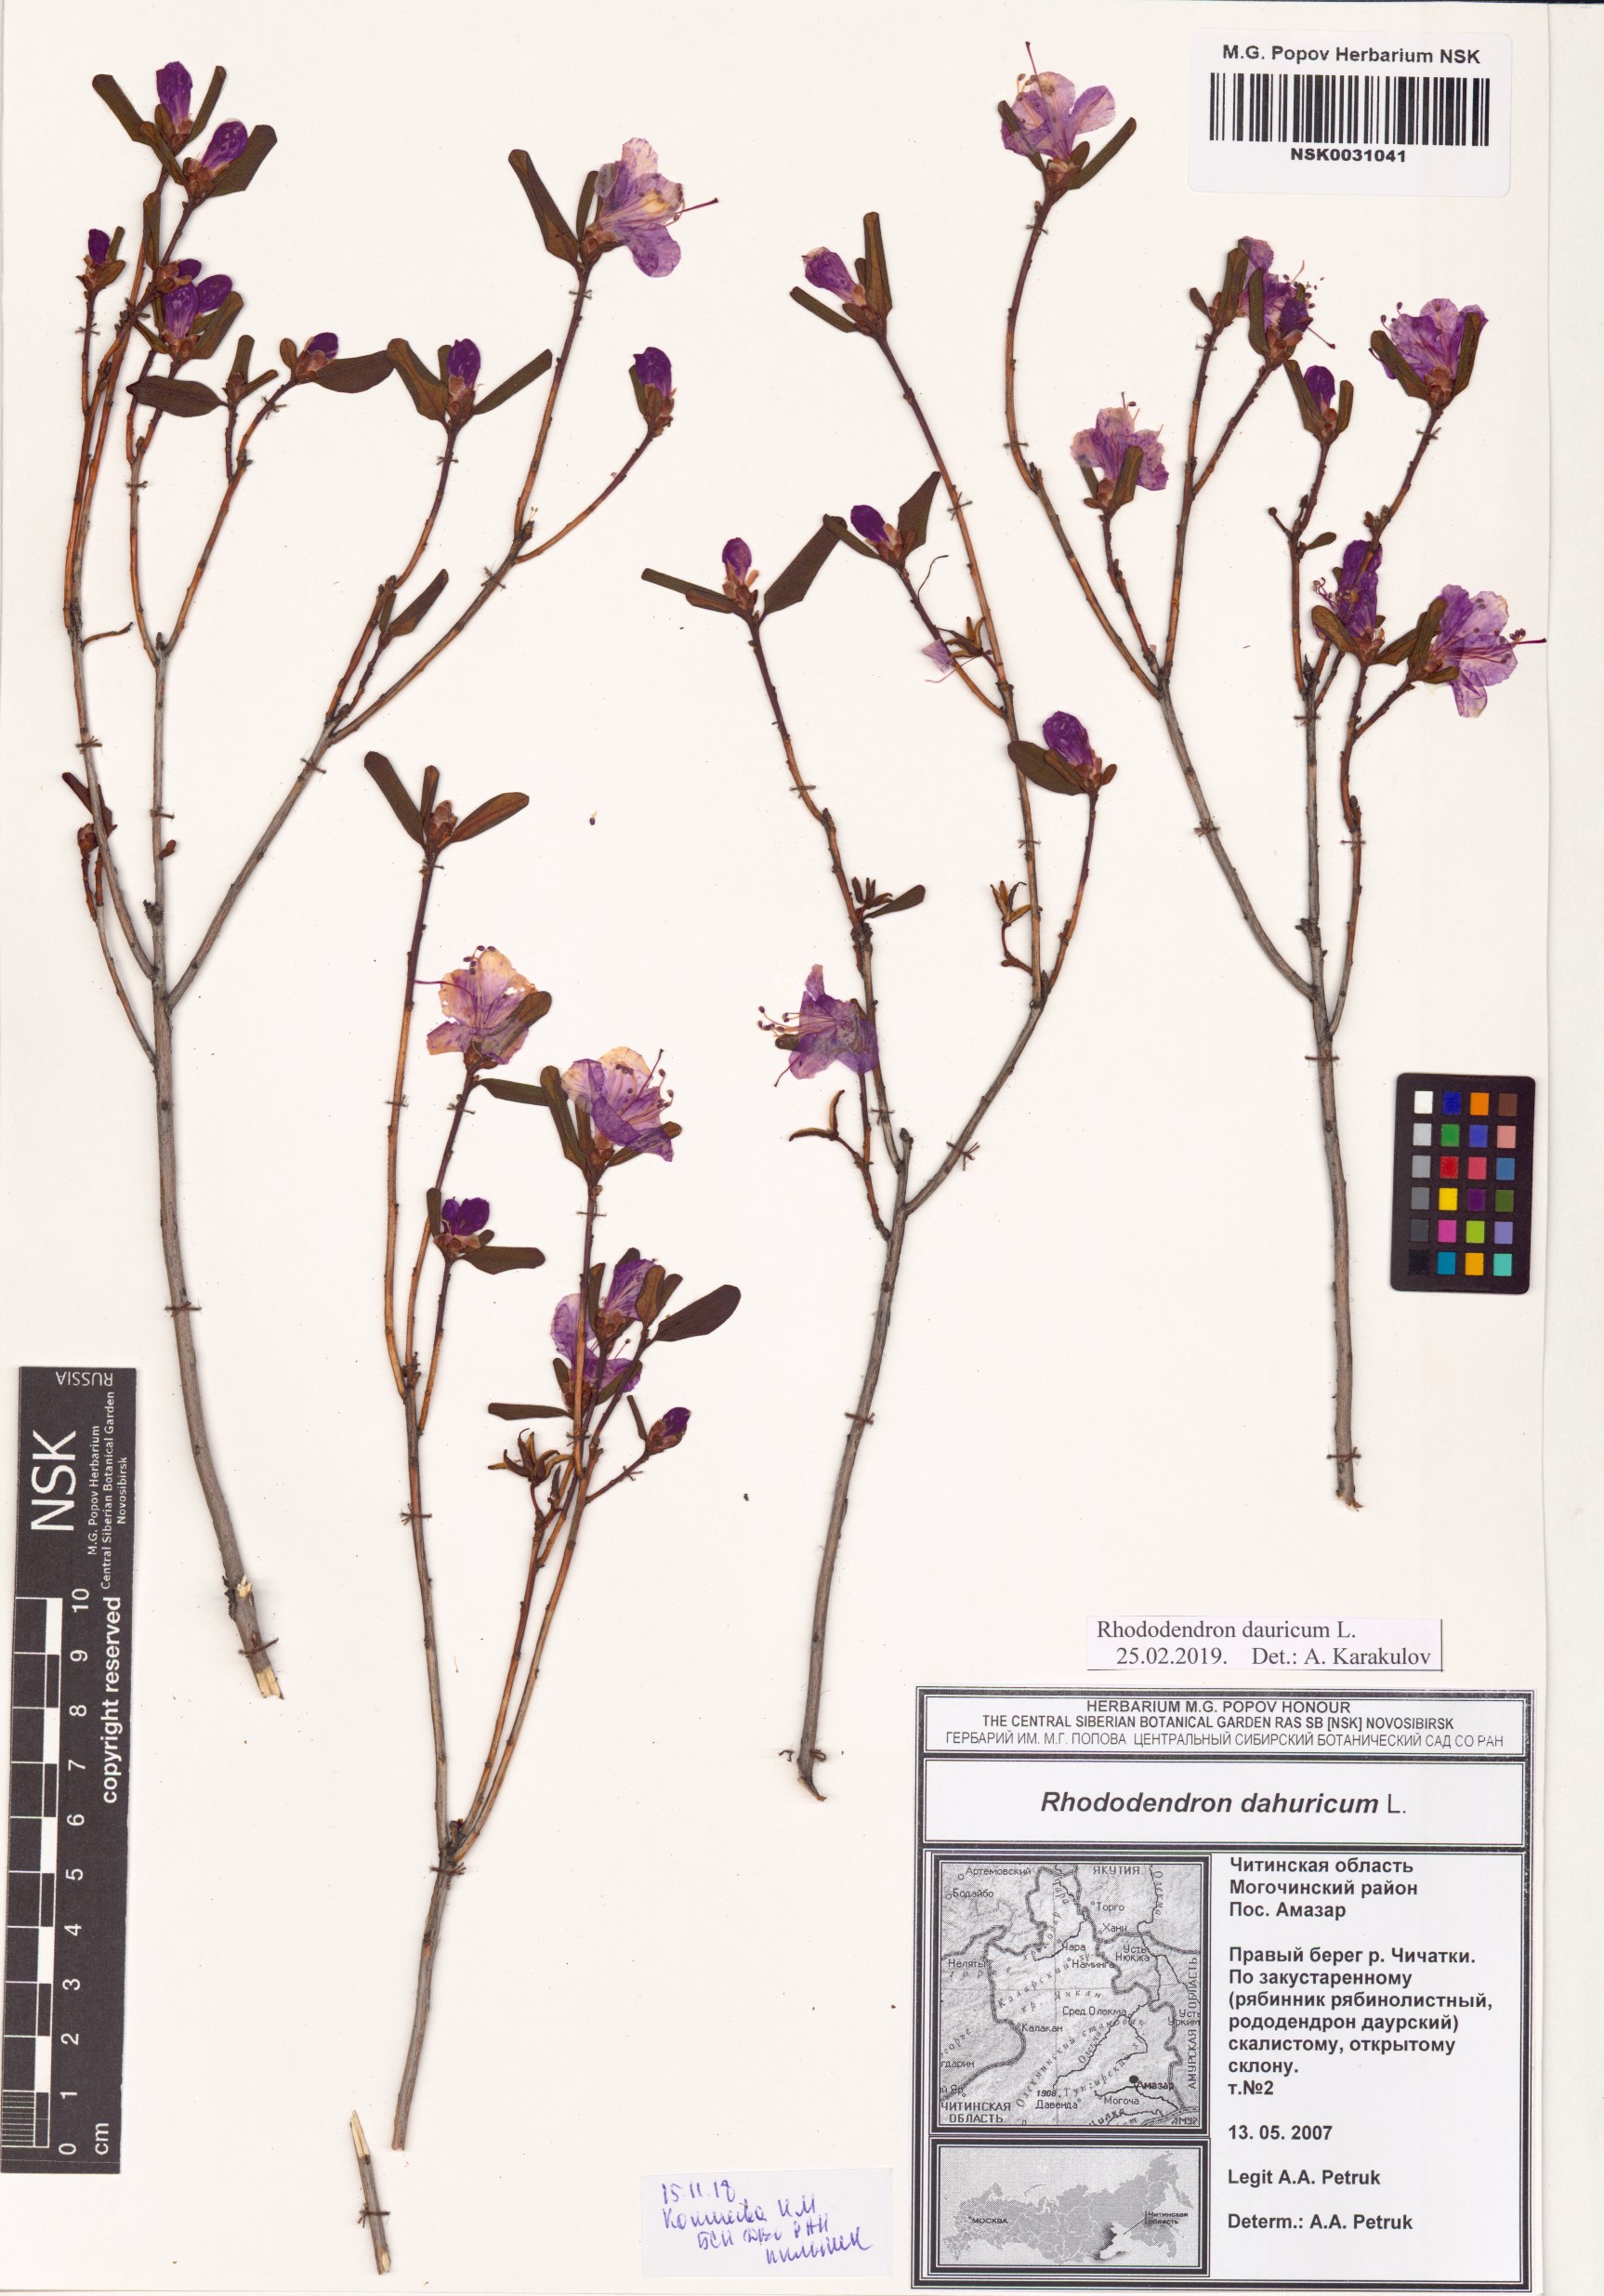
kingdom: Plantae
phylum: Tracheophyta
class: Magnoliopsida
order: Ericales
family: Ericaceae
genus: Rhododendron
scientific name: Rhododendron dauricum
